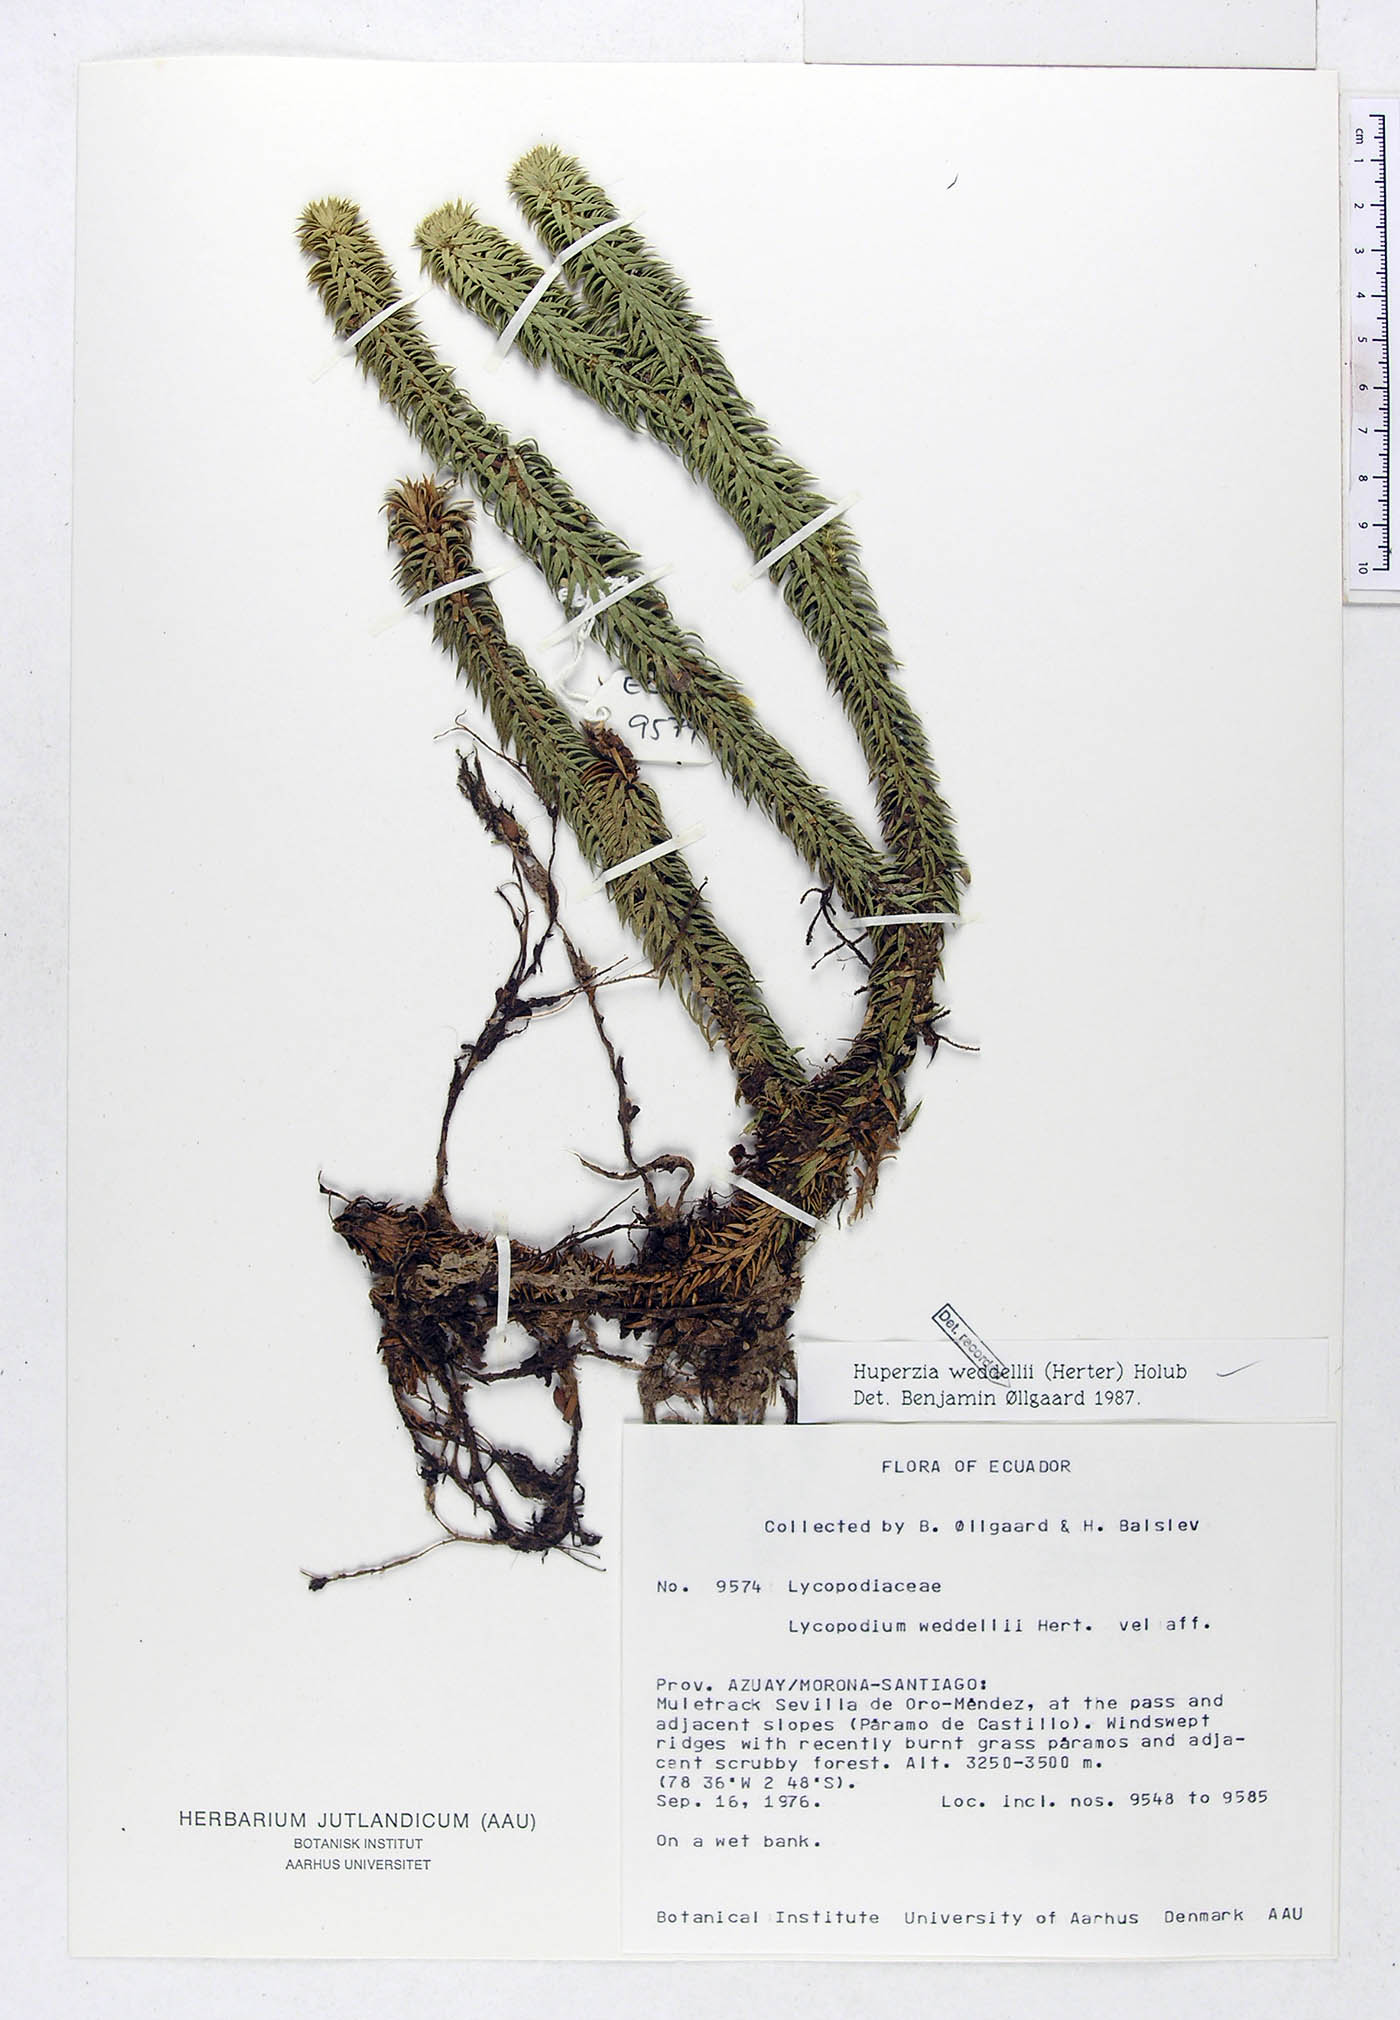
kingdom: Plantae
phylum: Tracheophyta
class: Lycopodiopsida
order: Lycopodiales
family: Lycopodiaceae
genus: Phlegmariurus
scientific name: Phlegmariurus weddellii
